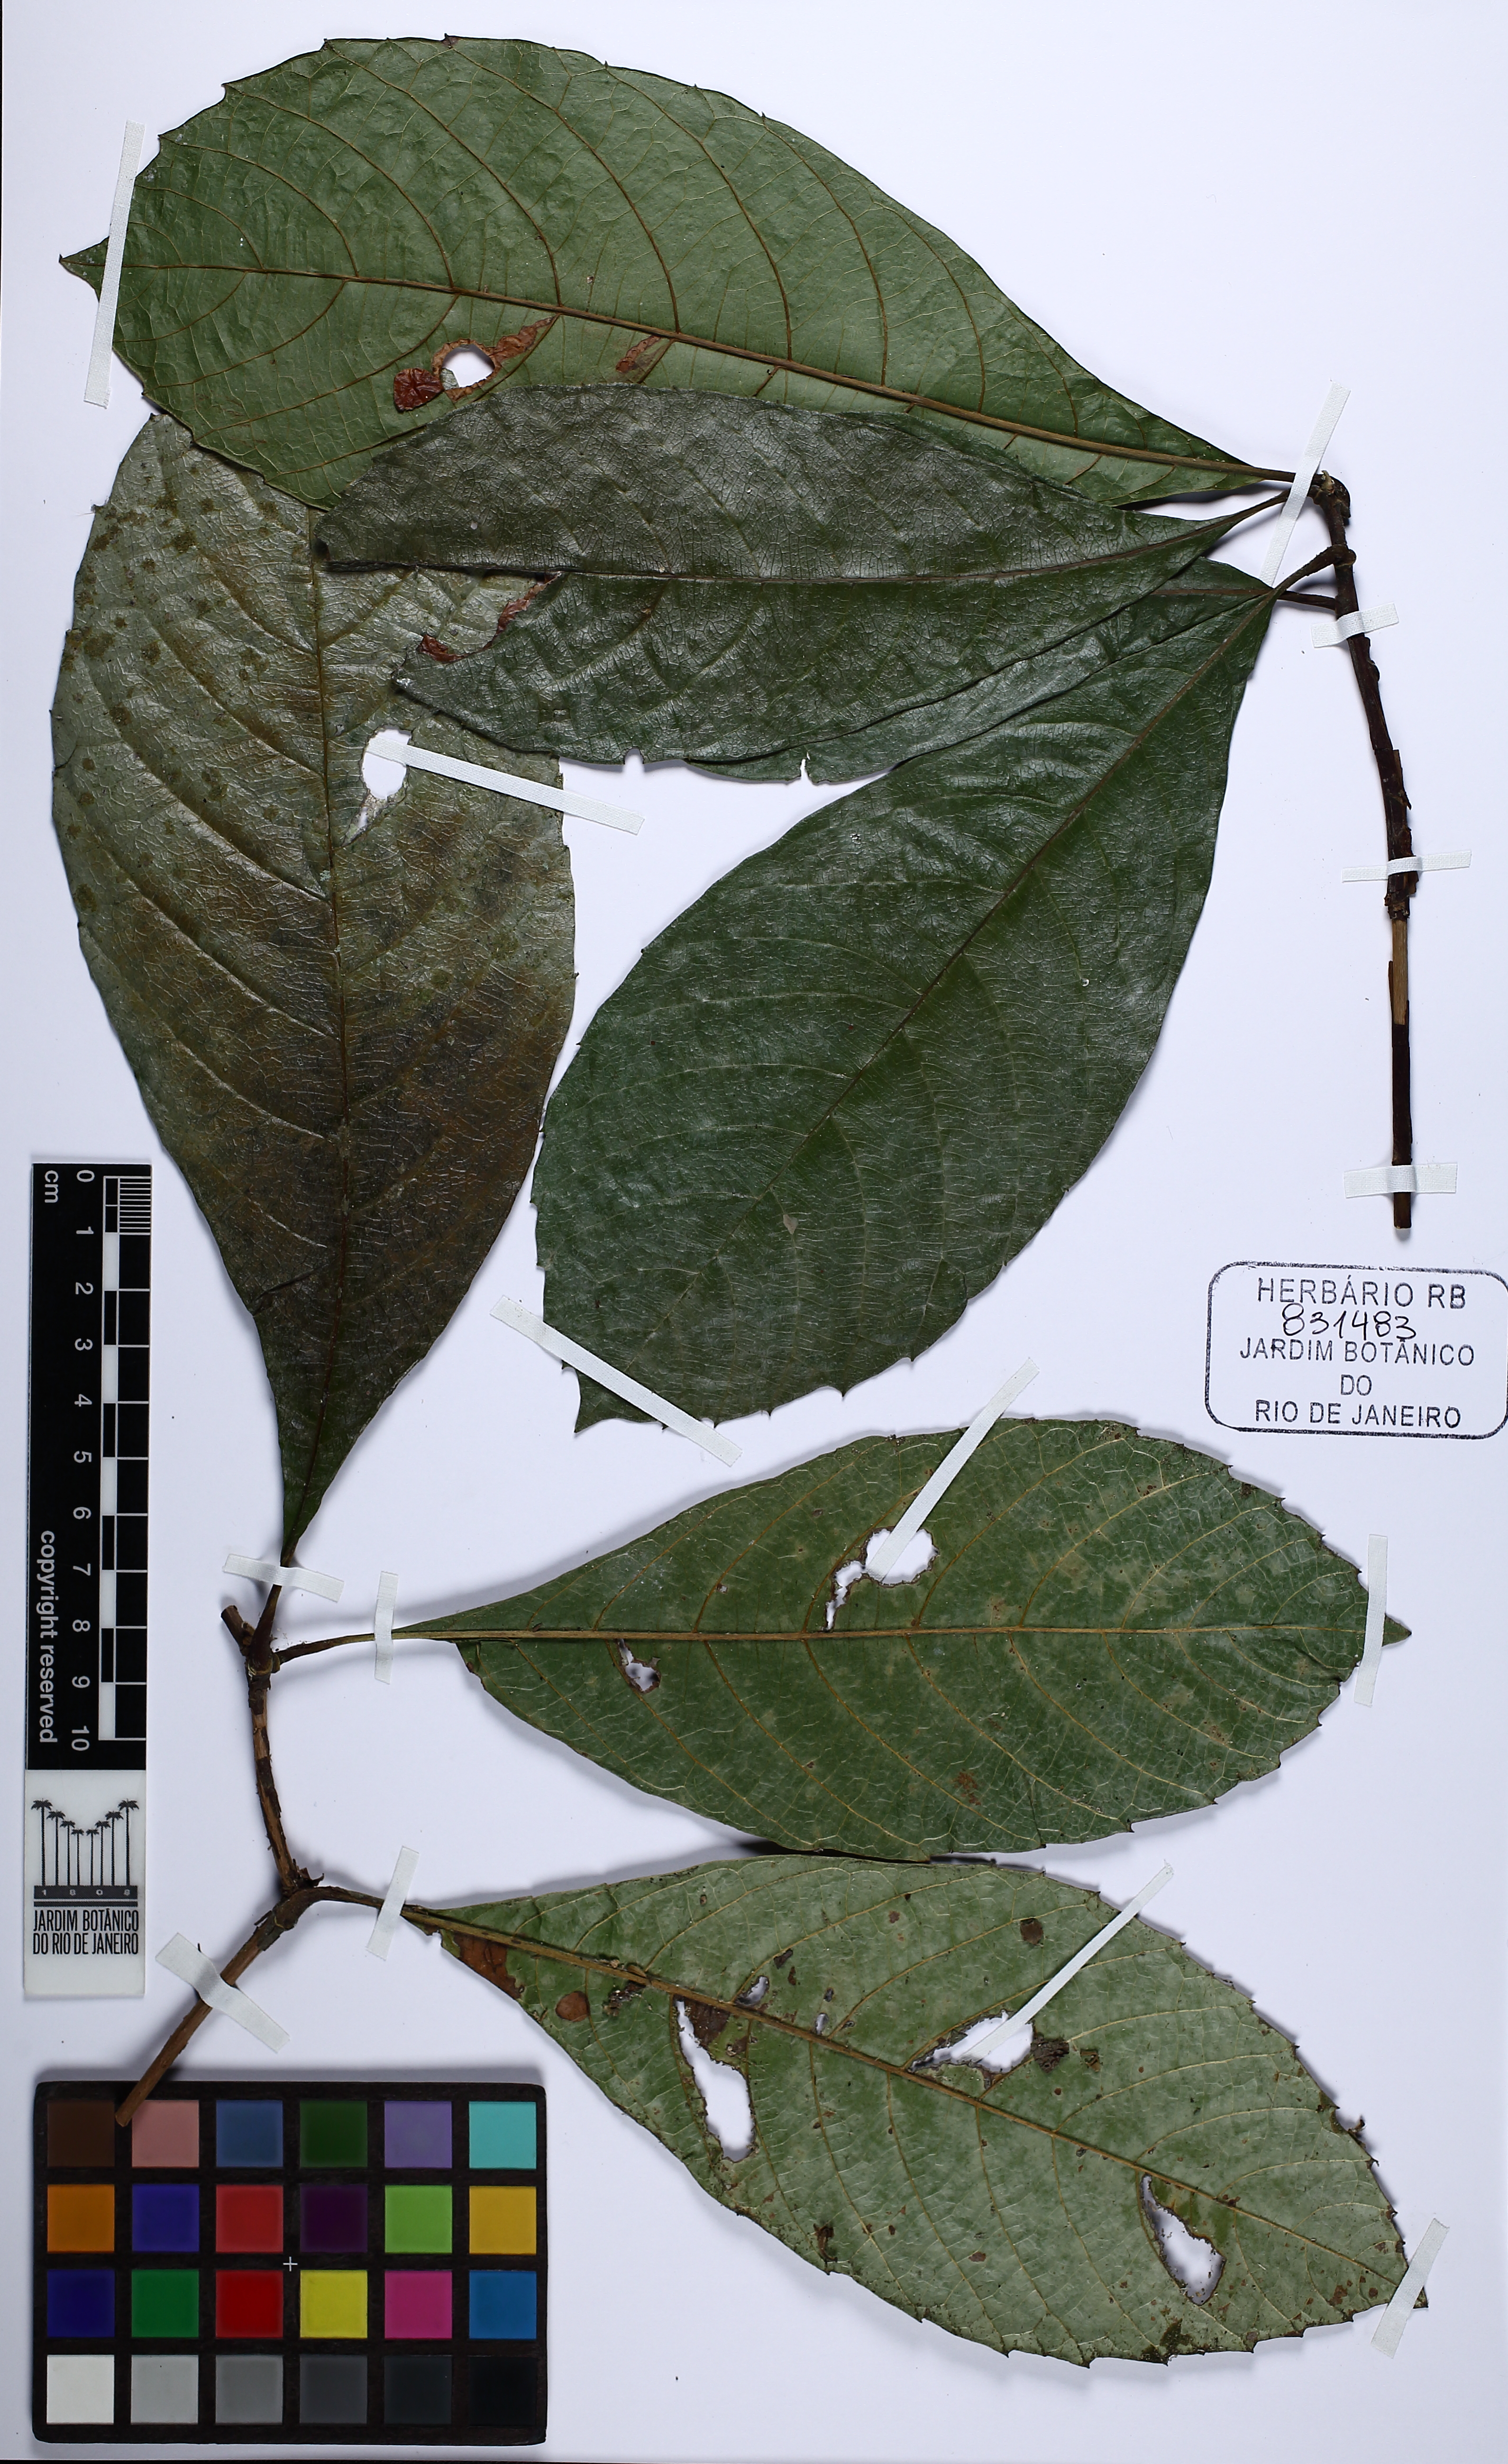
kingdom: Plantae
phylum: Tracheophyta
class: Magnoliopsida
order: Dilleniales
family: Dilleniaceae
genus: Doliocarpus
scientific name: Doliocarpus schottianus
